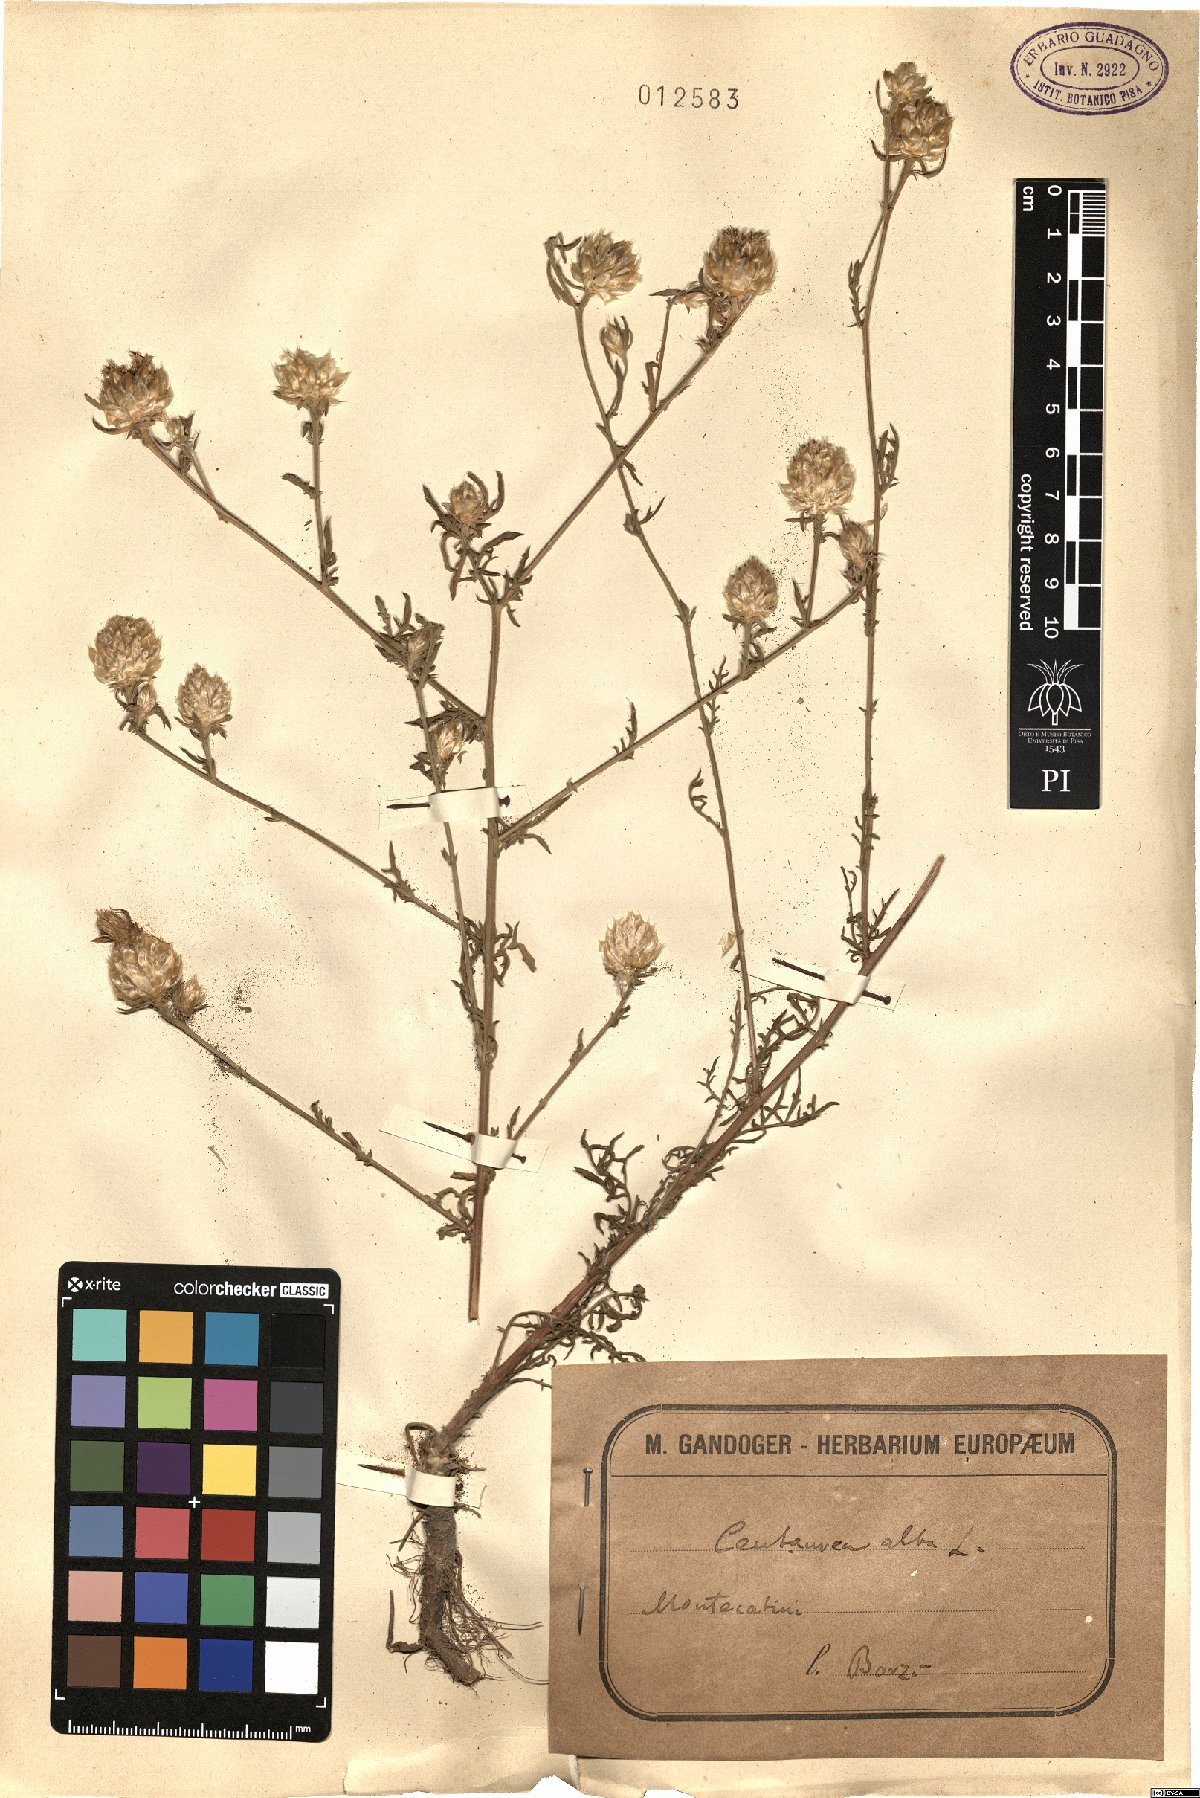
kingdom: Plantae
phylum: Tracheophyta
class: Magnoliopsida
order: Asterales
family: Asteraceae
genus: Centaurea
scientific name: Centaurea alba
